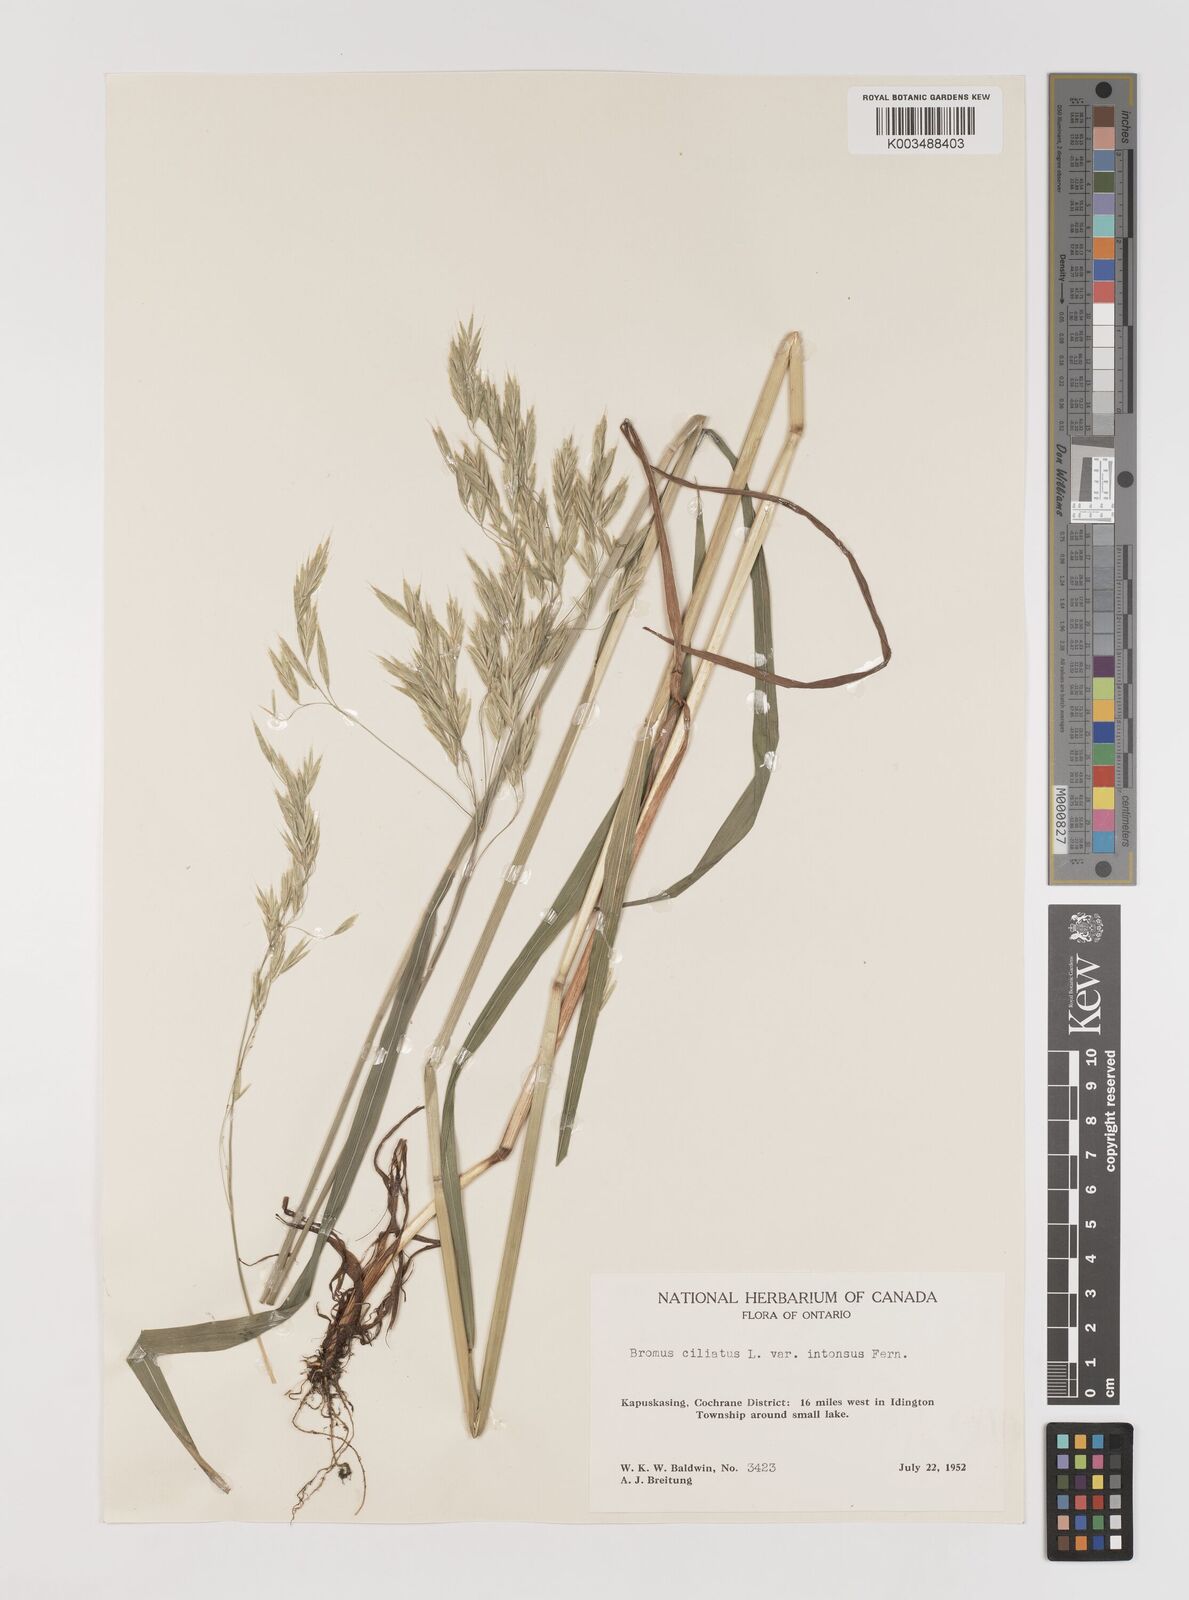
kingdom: Plantae
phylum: Tracheophyta
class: Liliopsida
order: Poales
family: Poaceae
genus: Bromus
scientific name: Bromus ciliatus
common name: Fringe brome
